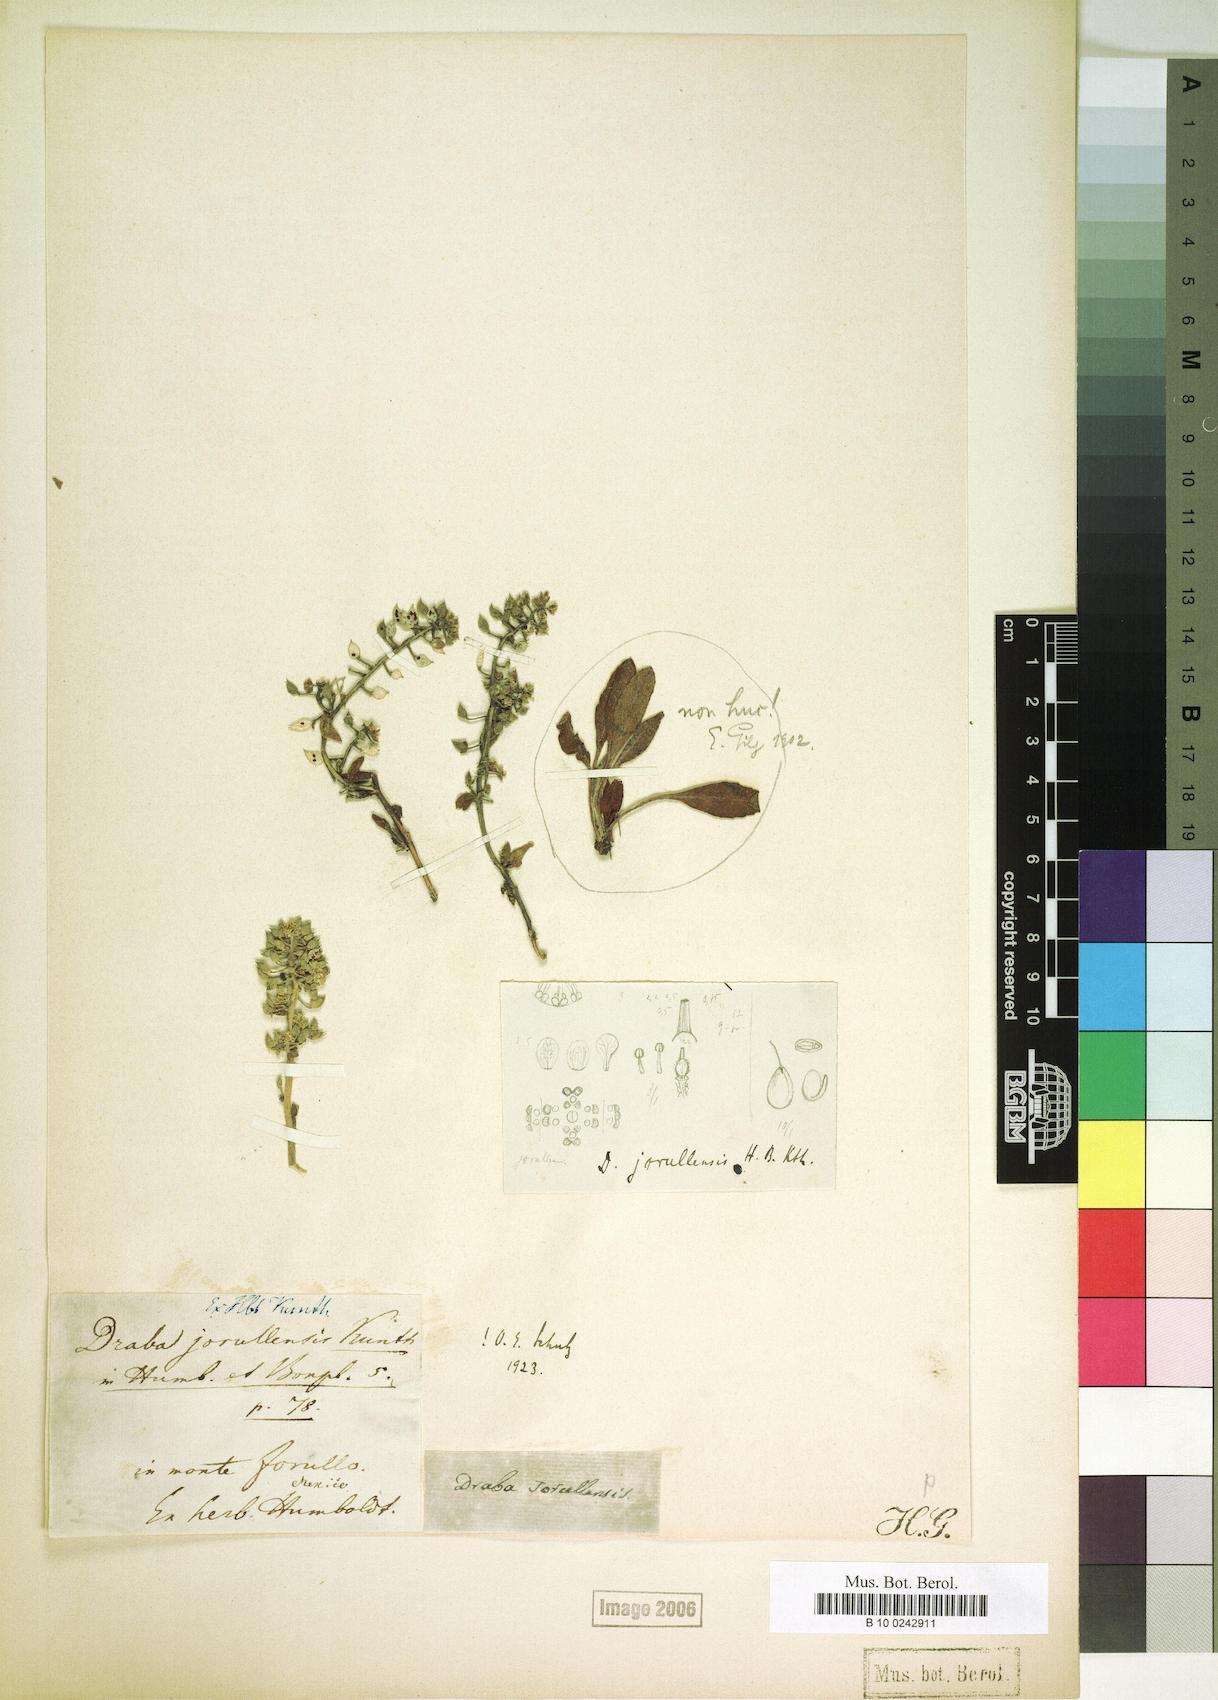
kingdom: Plantae
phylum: Tracheophyta
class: Magnoliopsida
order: Brassicales
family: Brassicaceae
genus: Draba
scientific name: Draba jorullensis
